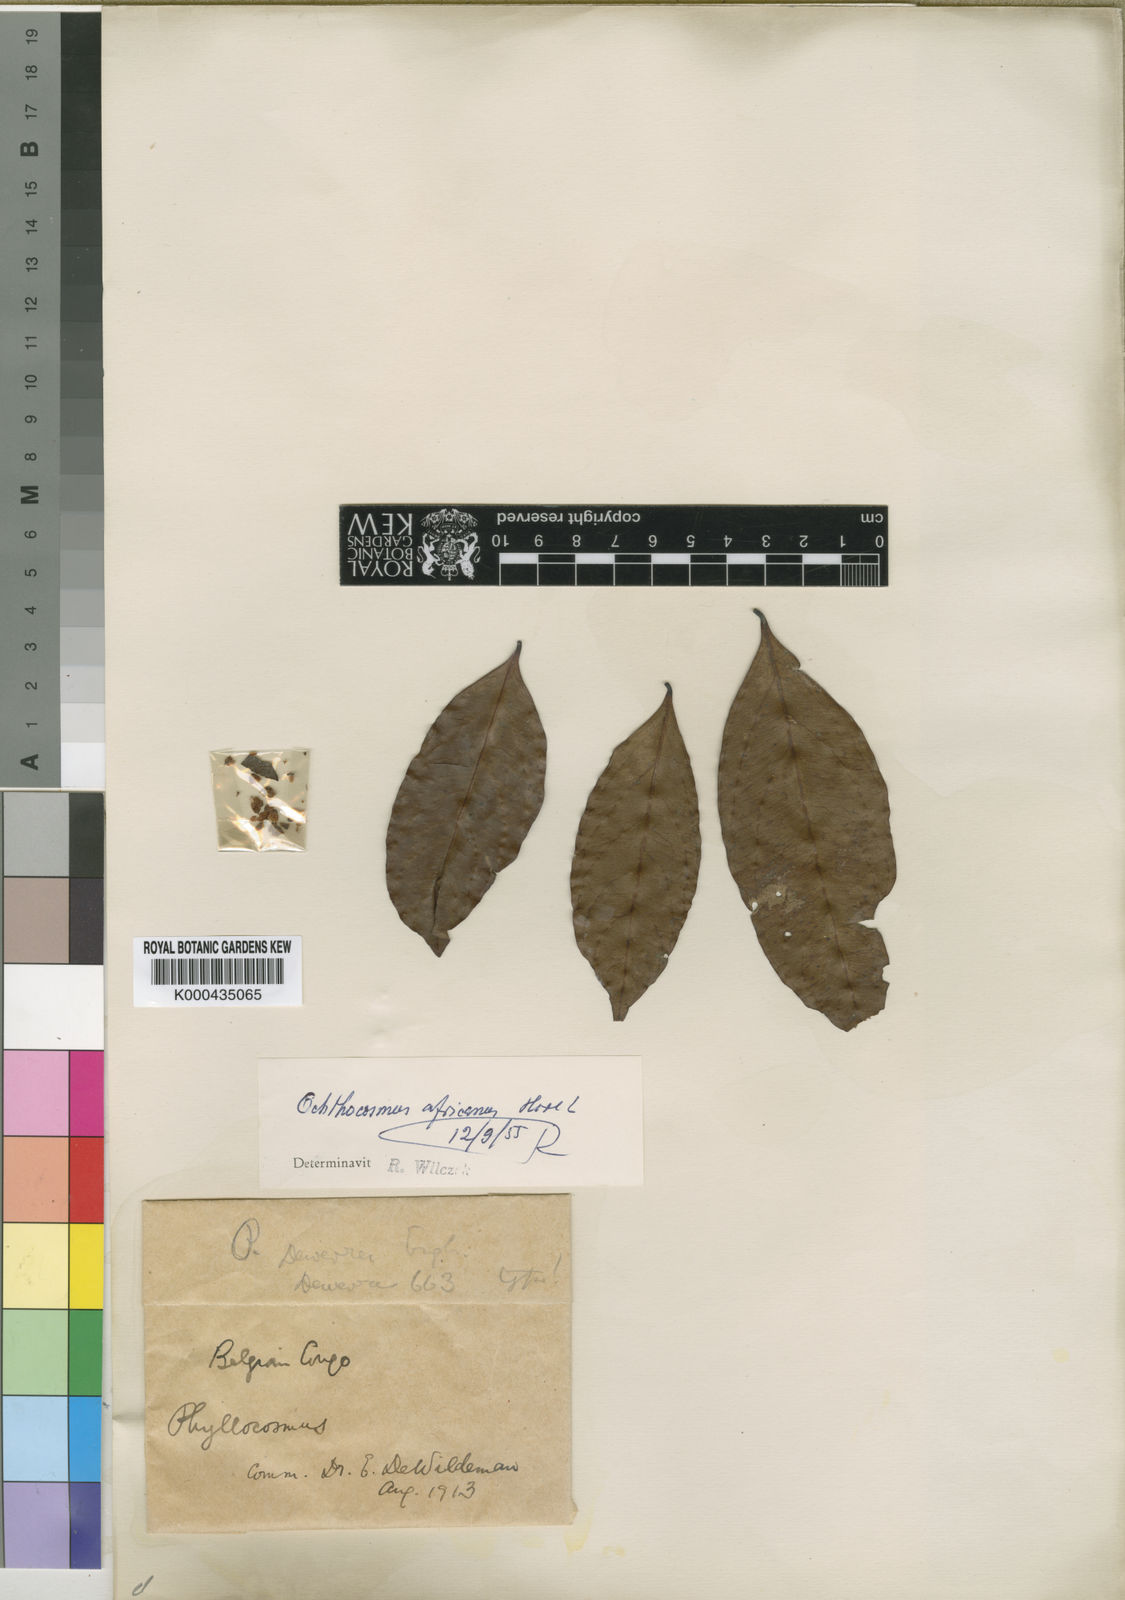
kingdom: Plantae
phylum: Tracheophyta
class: Magnoliopsida
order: Malpighiales
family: Ixonanthaceae
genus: Phyllocosmus
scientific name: Phyllocosmus africanus
